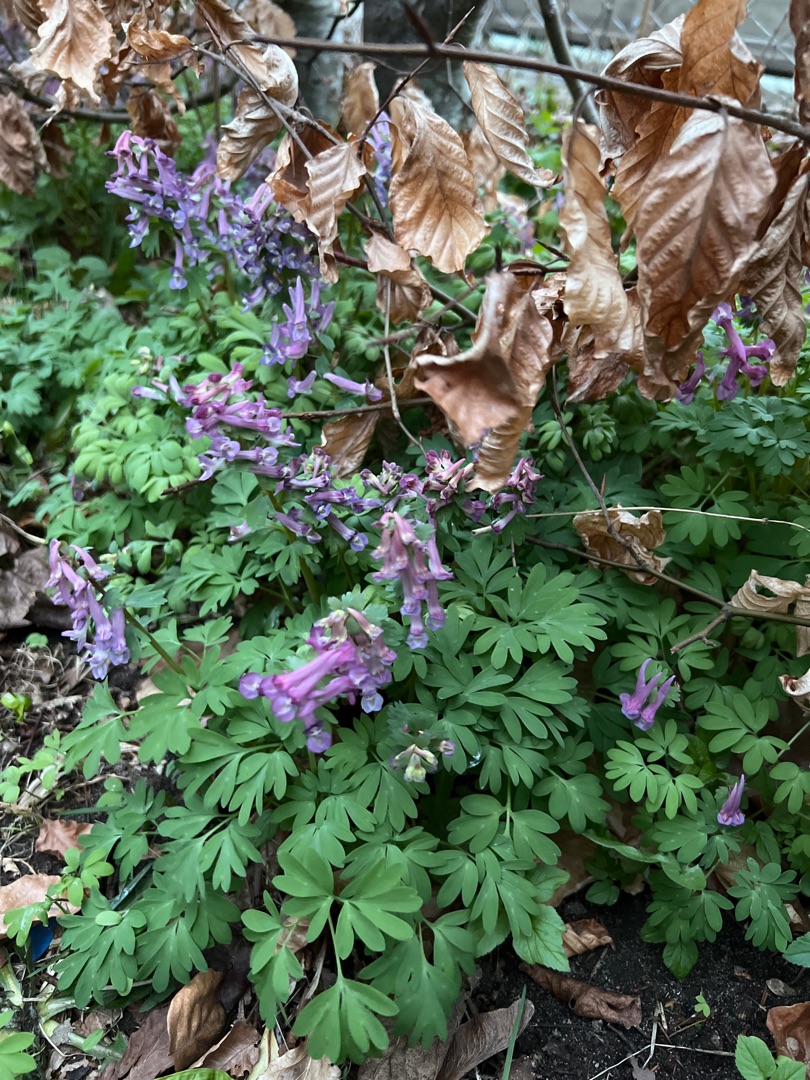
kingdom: Plantae
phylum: Tracheophyta
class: Magnoliopsida
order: Ranunculales
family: Papaveraceae
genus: Corydalis
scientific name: Corydalis solida
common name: Langstilket lærkespore
